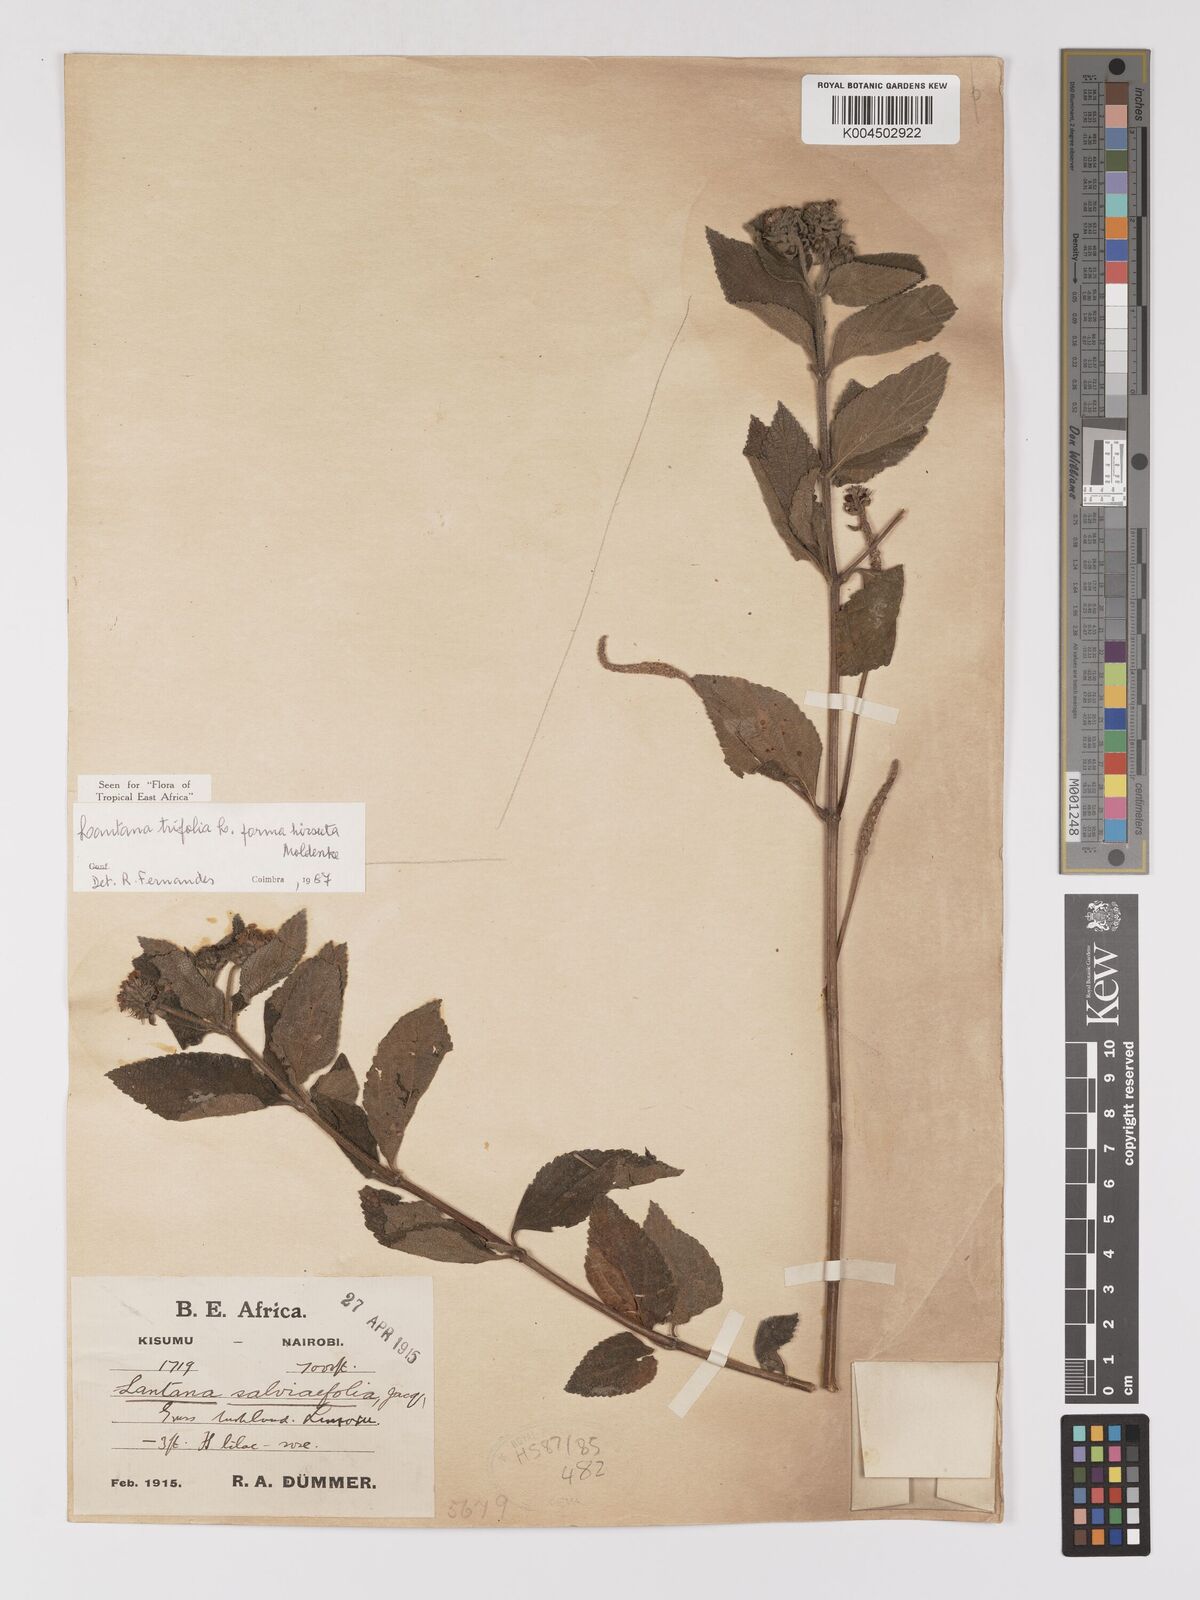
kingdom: Plantae
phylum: Tracheophyta
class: Magnoliopsida
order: Lamiales
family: Verbenaceae
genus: Lantana
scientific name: Lantana trifolia
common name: Sweet-sage
